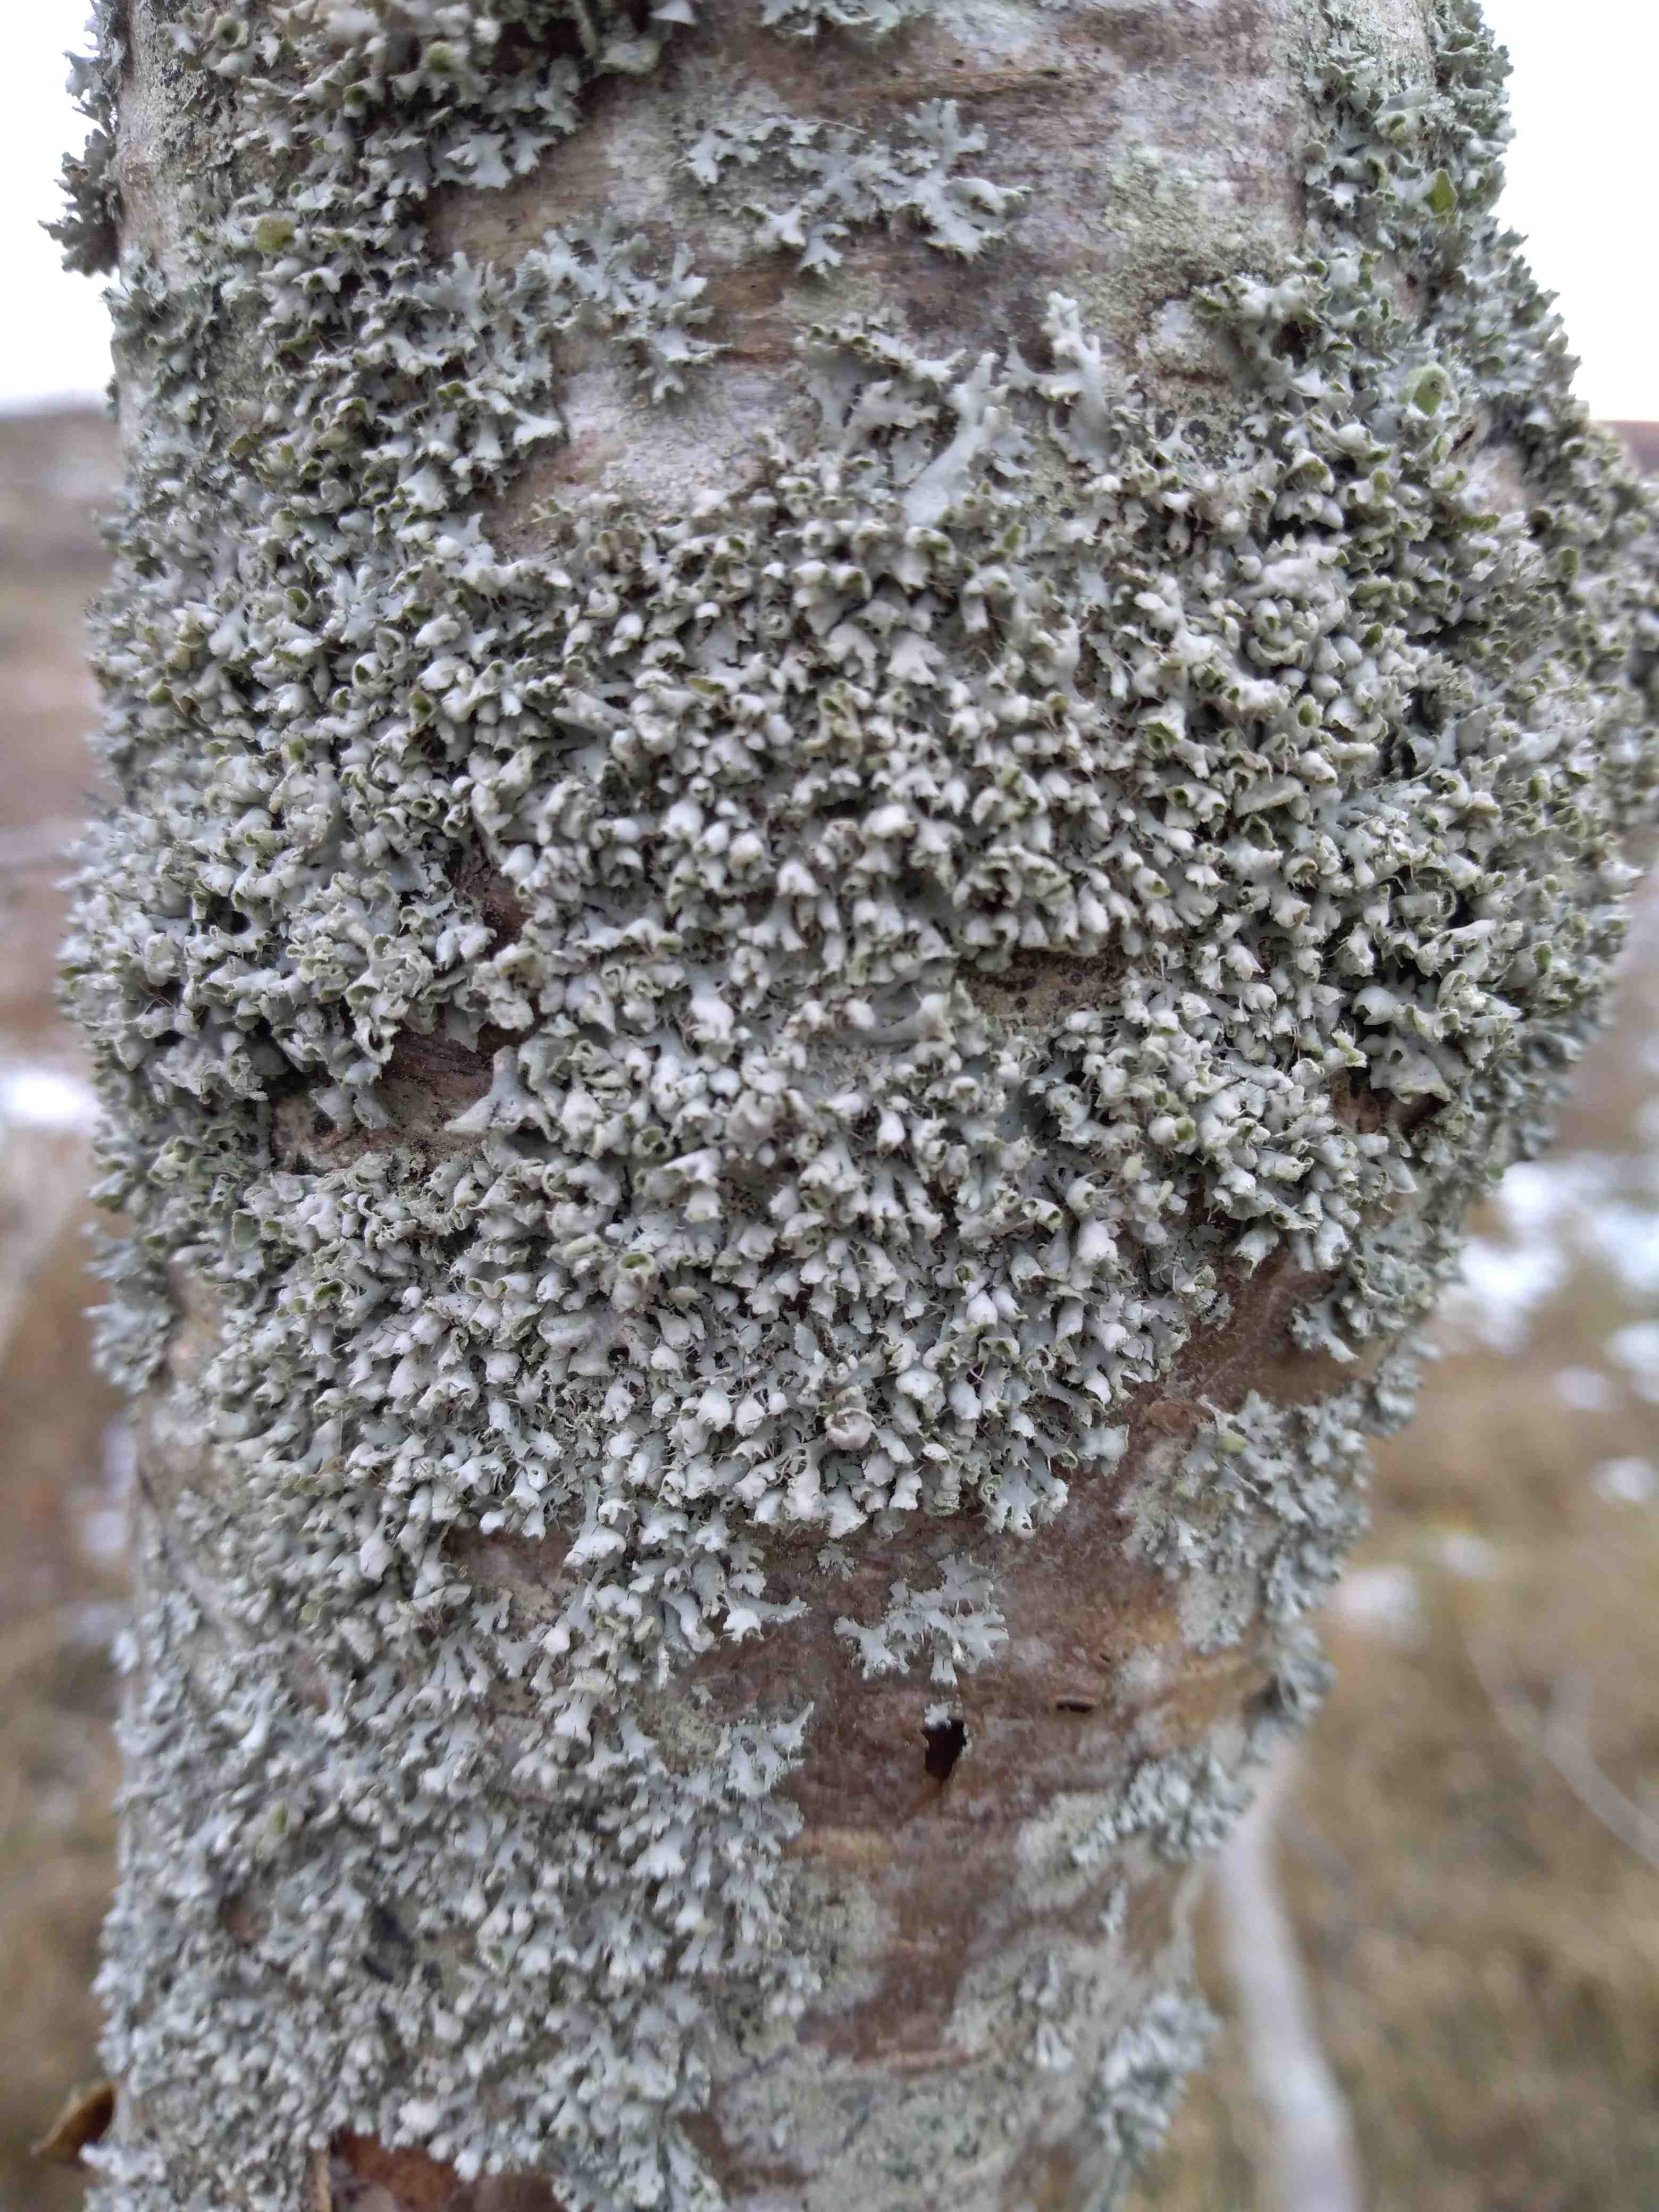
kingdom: Fungi
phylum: Ascomycota
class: Lecanoromycetes
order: Caliciales
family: Physciaceae
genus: Physcia
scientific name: Physcia adscendens
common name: hætte-rosetlav
